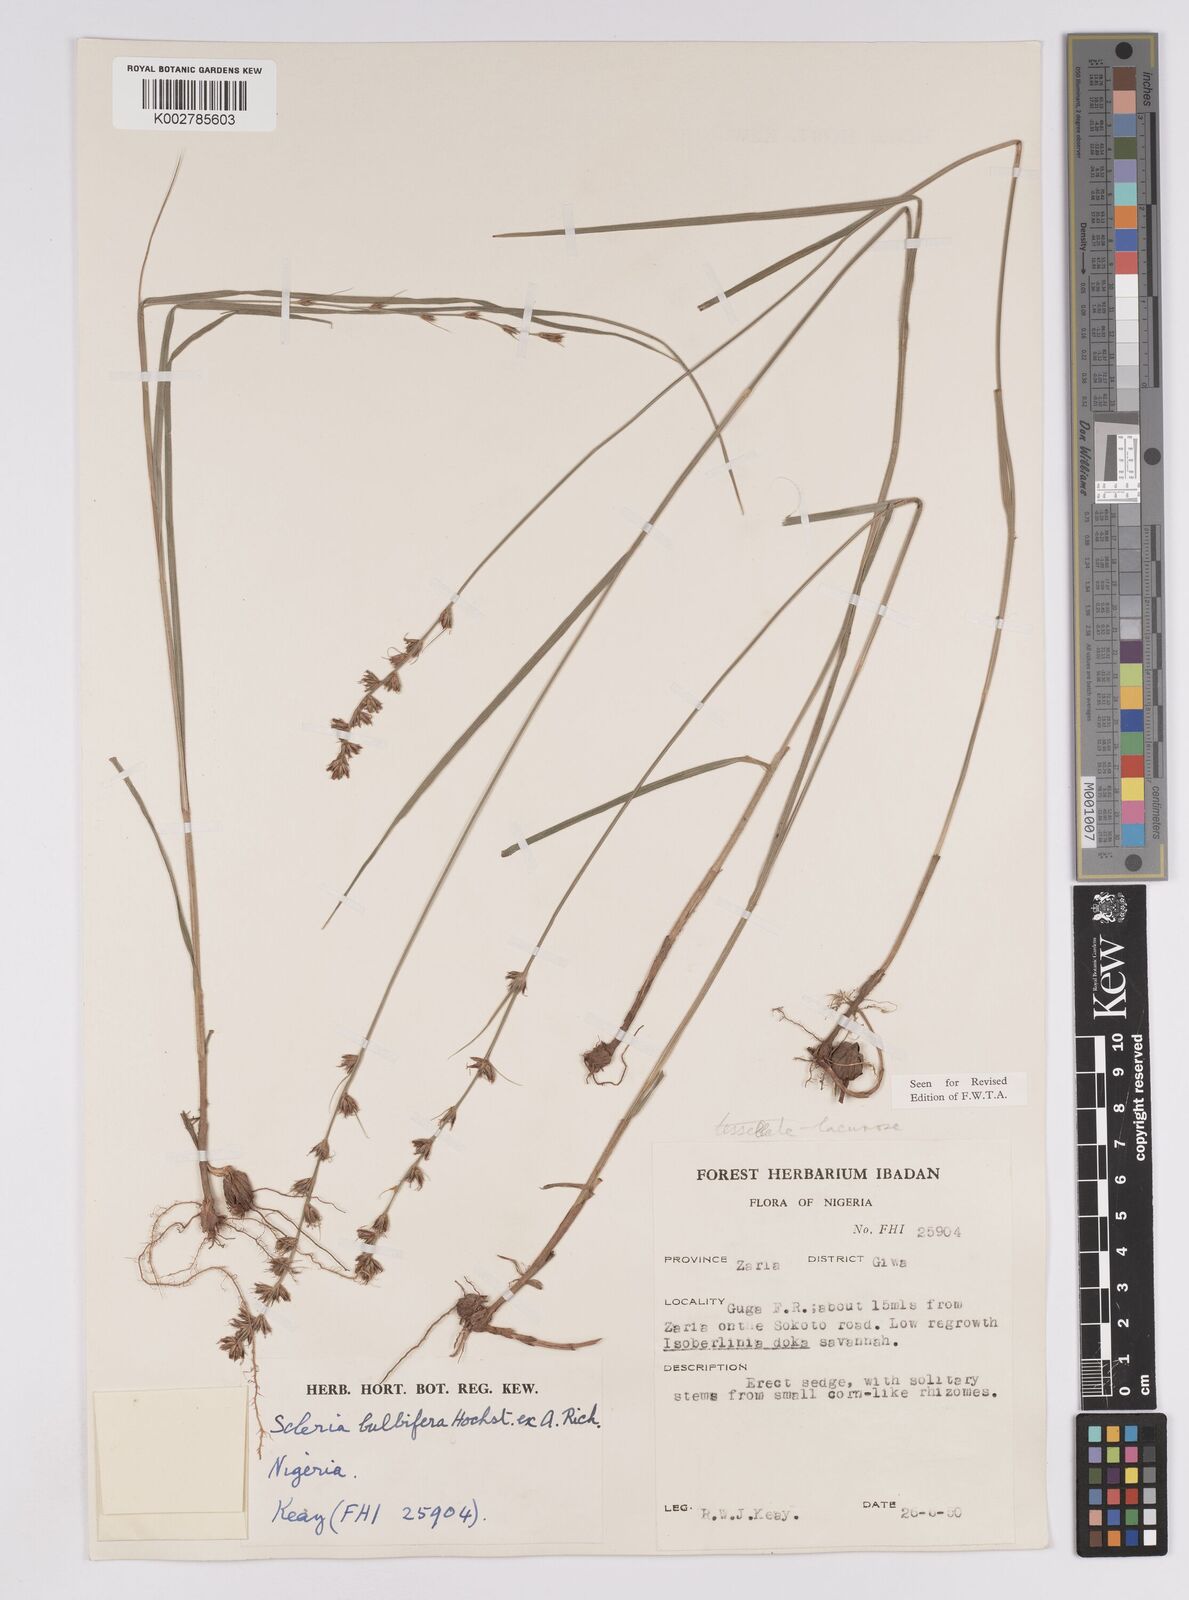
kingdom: Plantae
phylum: Tracheophyta
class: Liliopsida
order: Poales
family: Cyperaceae
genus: Scleria
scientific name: Scleria bulbifera
